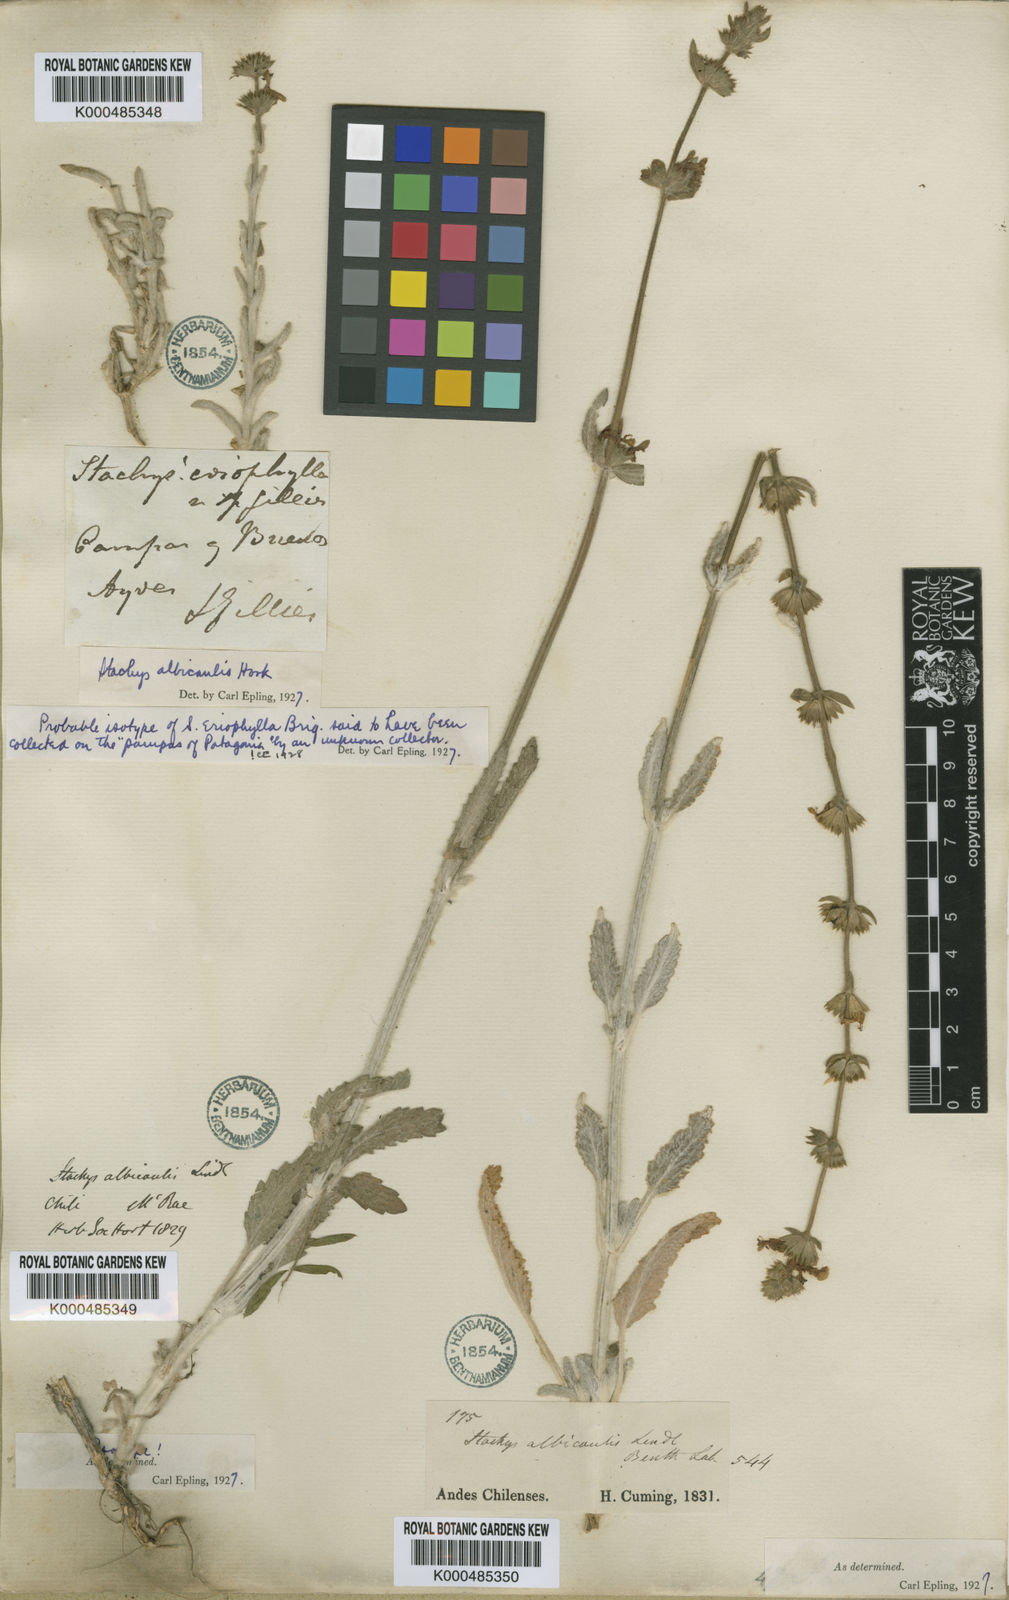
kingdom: Plantae
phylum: Tracheophyta
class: Magnoliopsida
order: Lamiales
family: Lamiaceae
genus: Stachys
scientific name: Stachys albicaulis
